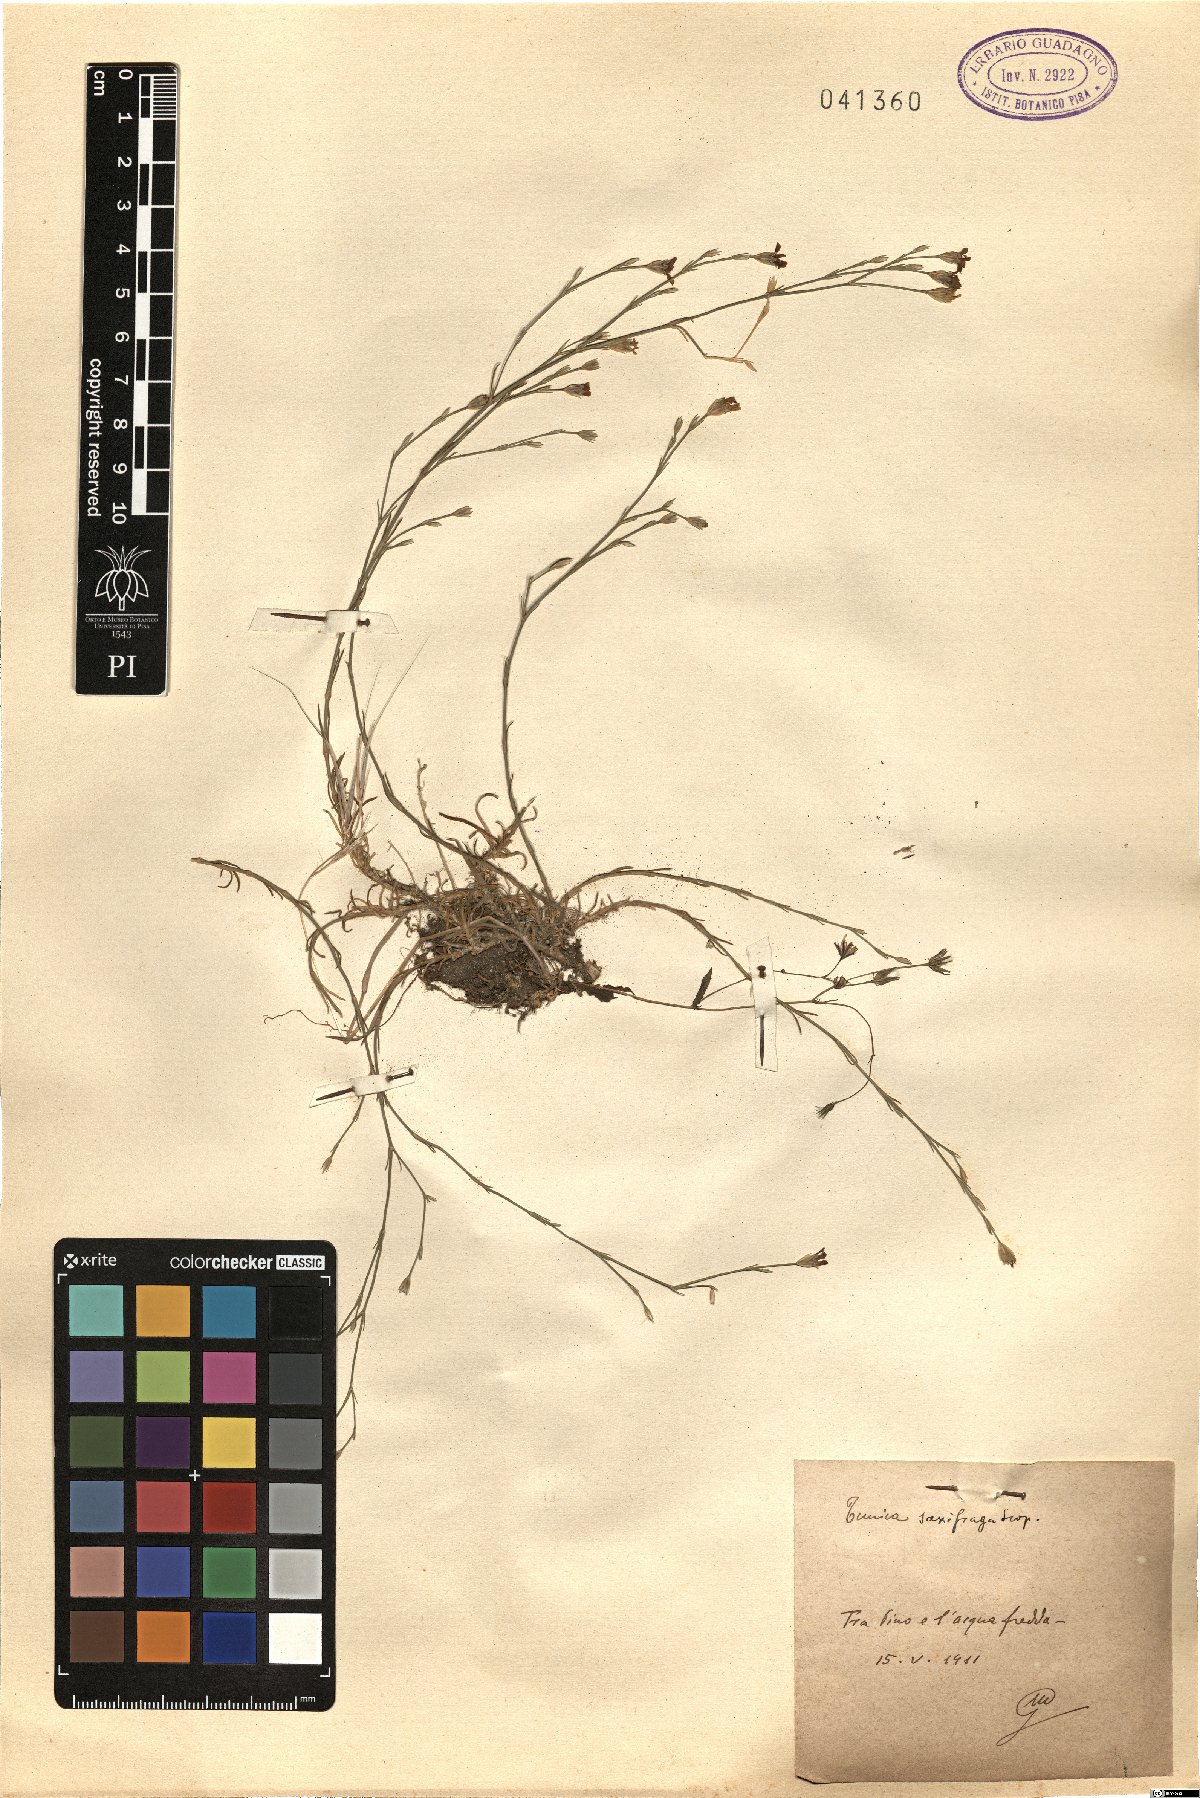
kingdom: Plantae
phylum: Tracheophyta
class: Magnoliopsida
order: Caryophyllales
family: Caryophyllaceae
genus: Petrorhagia
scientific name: Petrorhagia saxifraga
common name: Tunicflower
